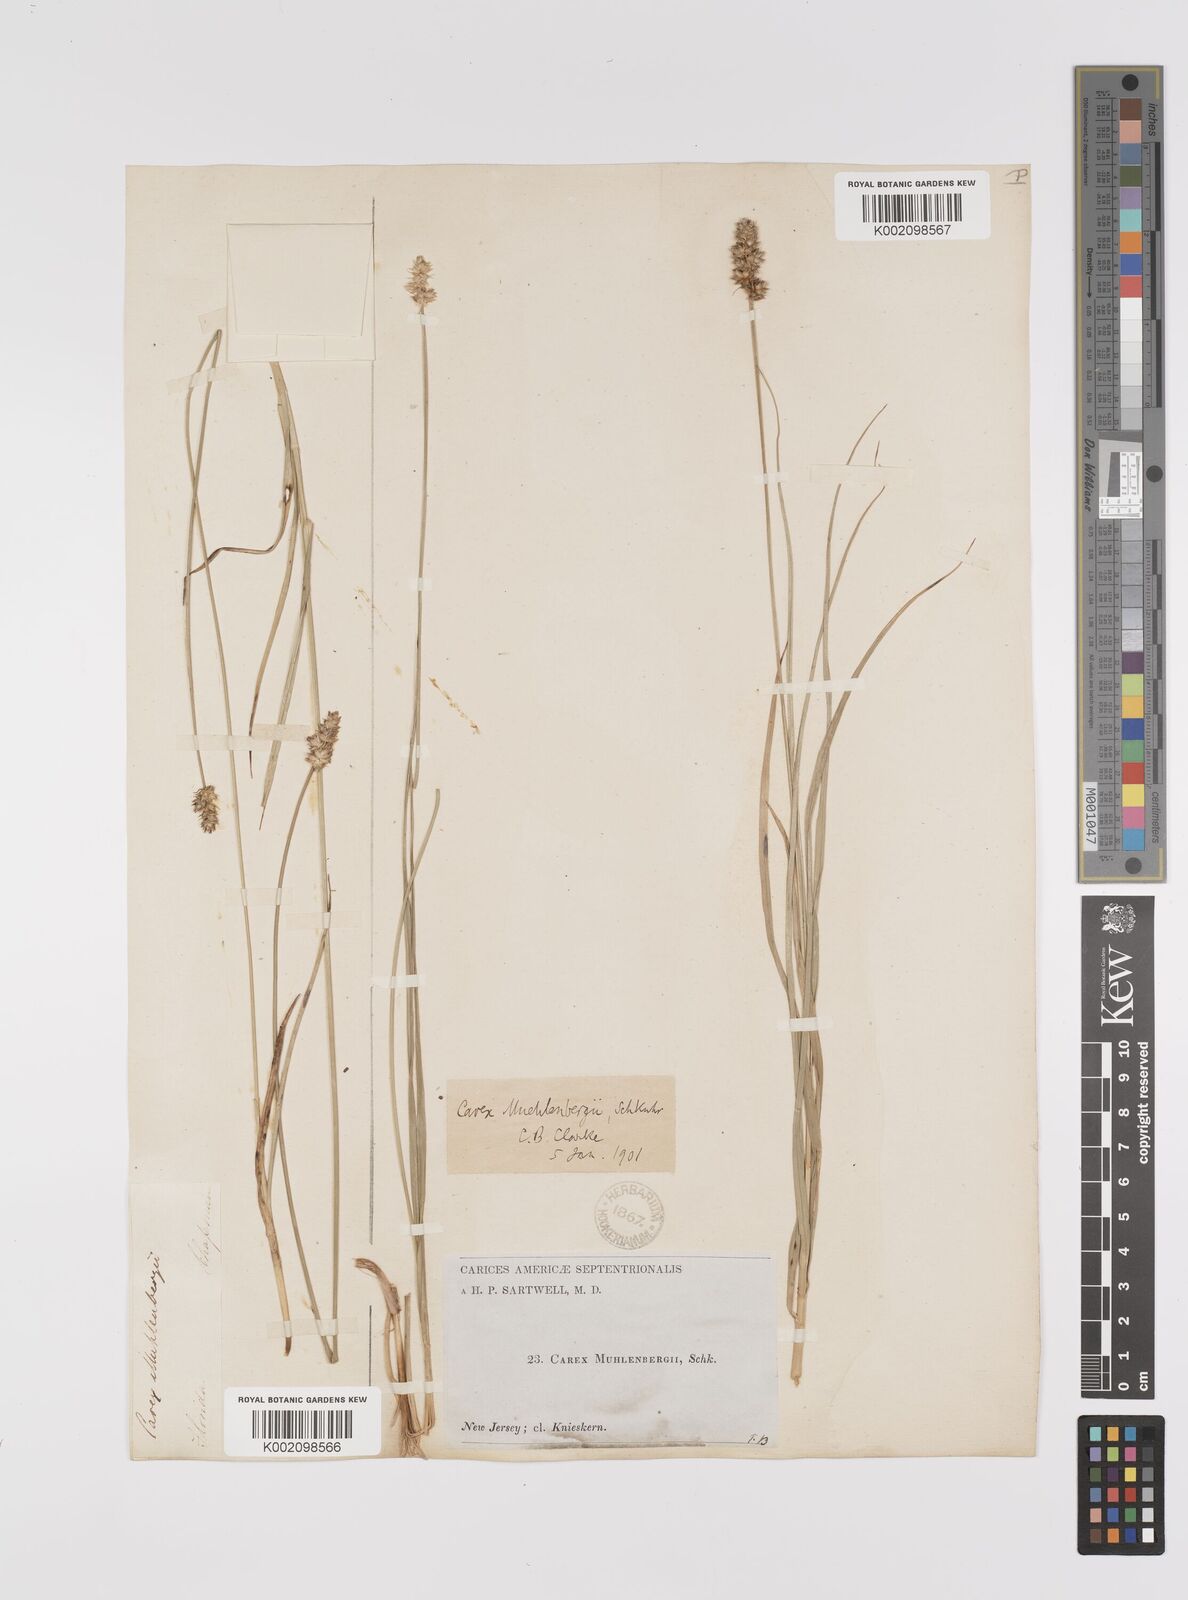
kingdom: Plantae
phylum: Tracheophyta
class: Liliopsida
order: Poales
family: Cyperaceae
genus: Carex
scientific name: Carex vulpinoidea
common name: American fox-sedge
